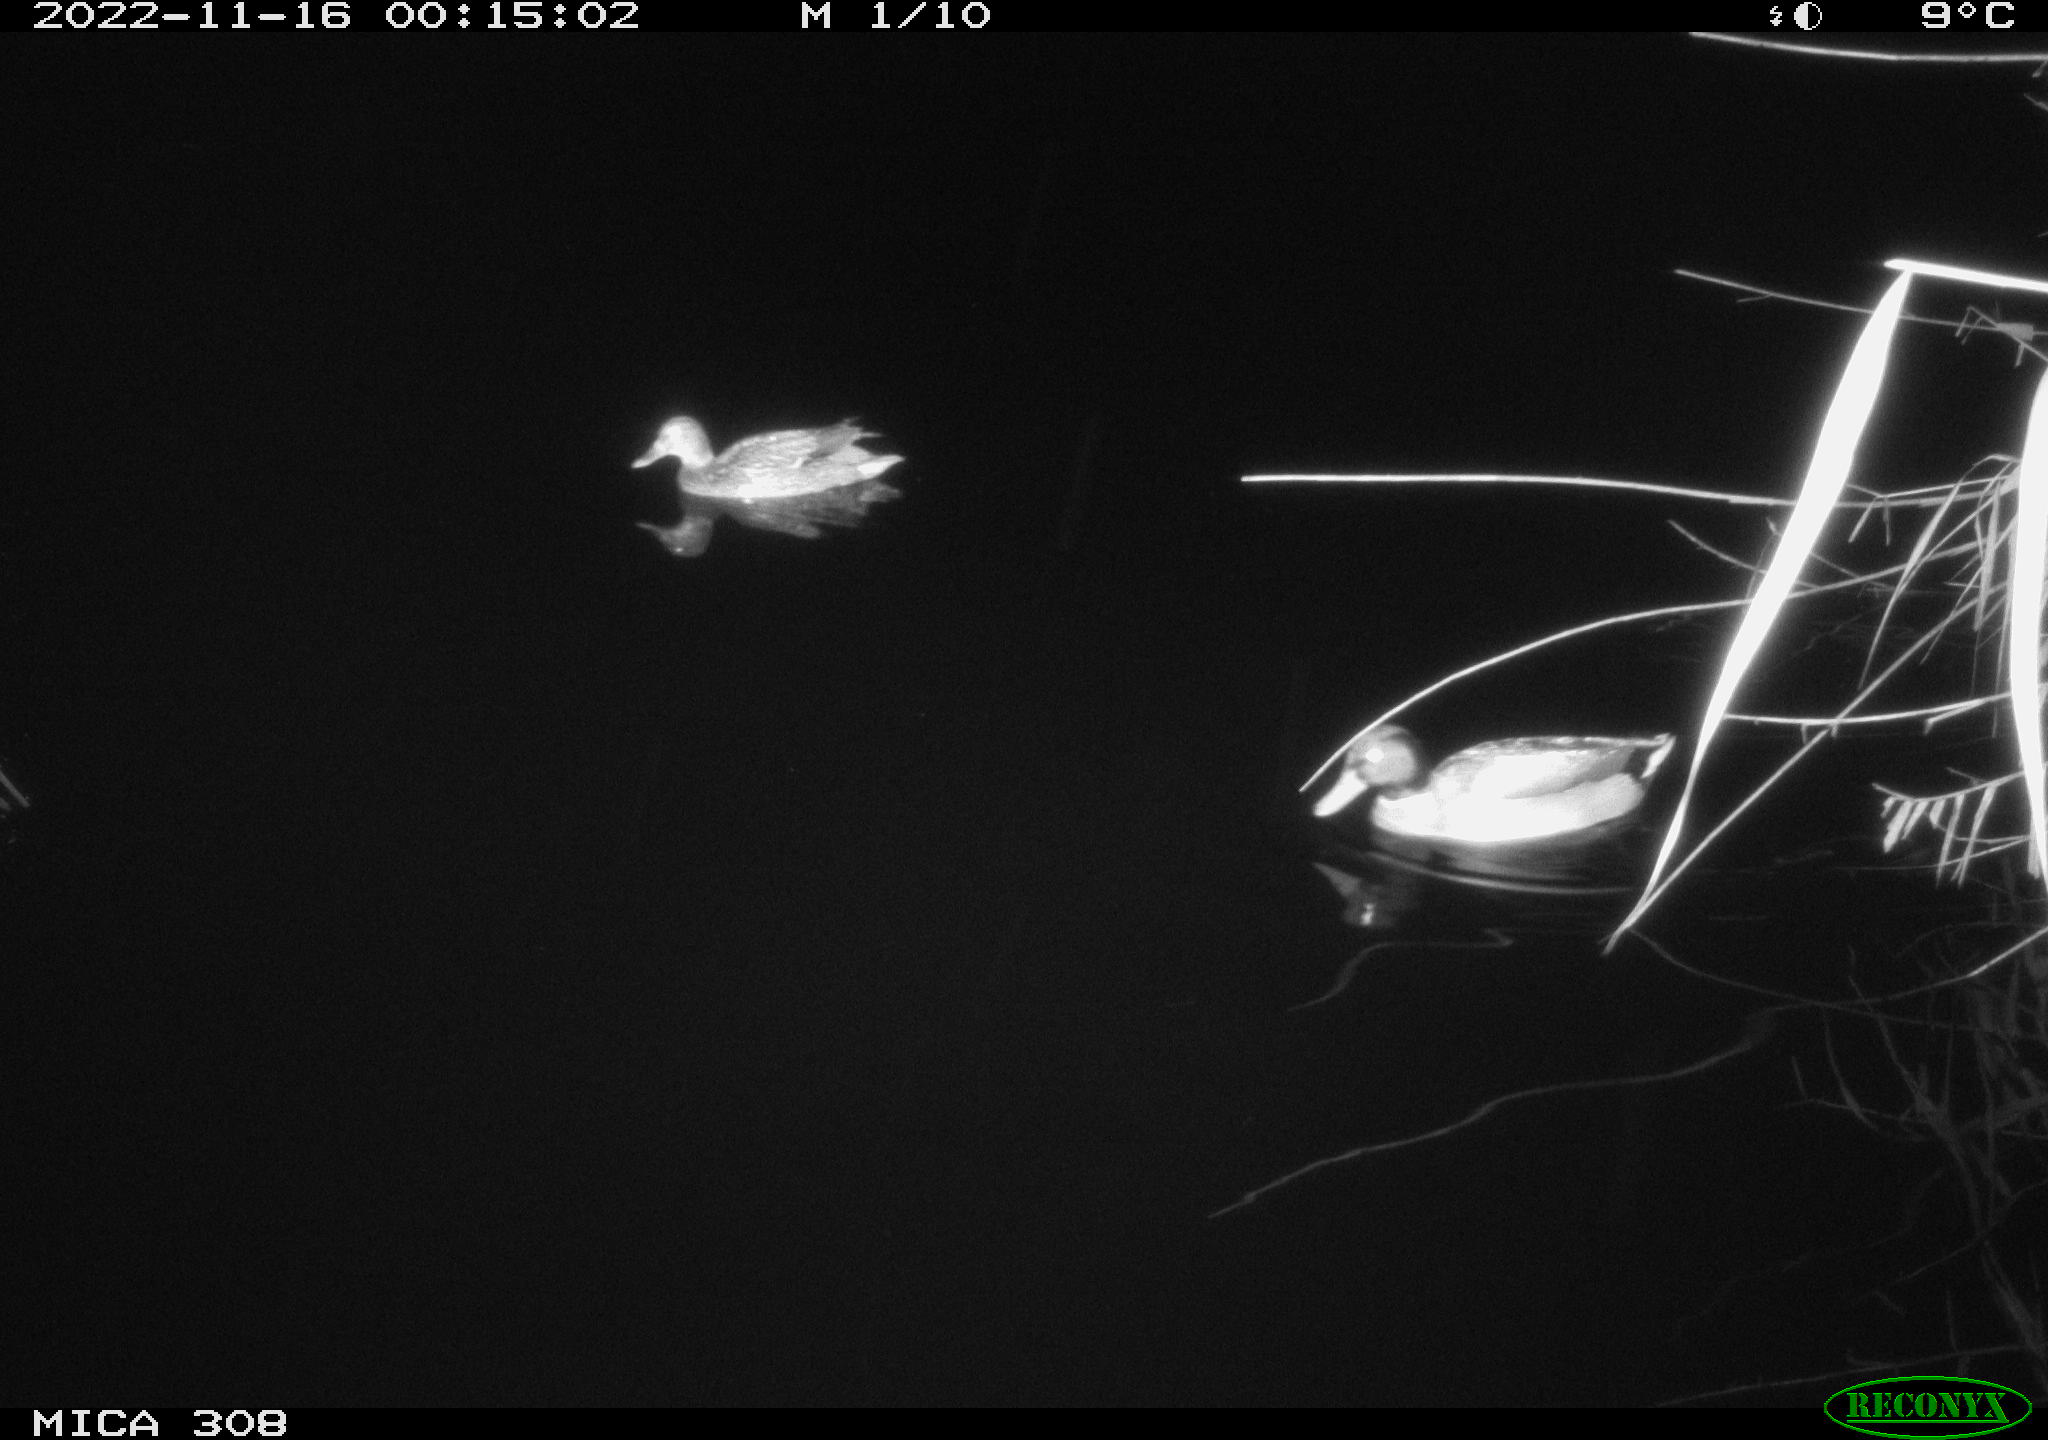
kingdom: Animalia
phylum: Chordata
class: Aves
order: Anseriformes
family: Anatidae
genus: Anas
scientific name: Anas
